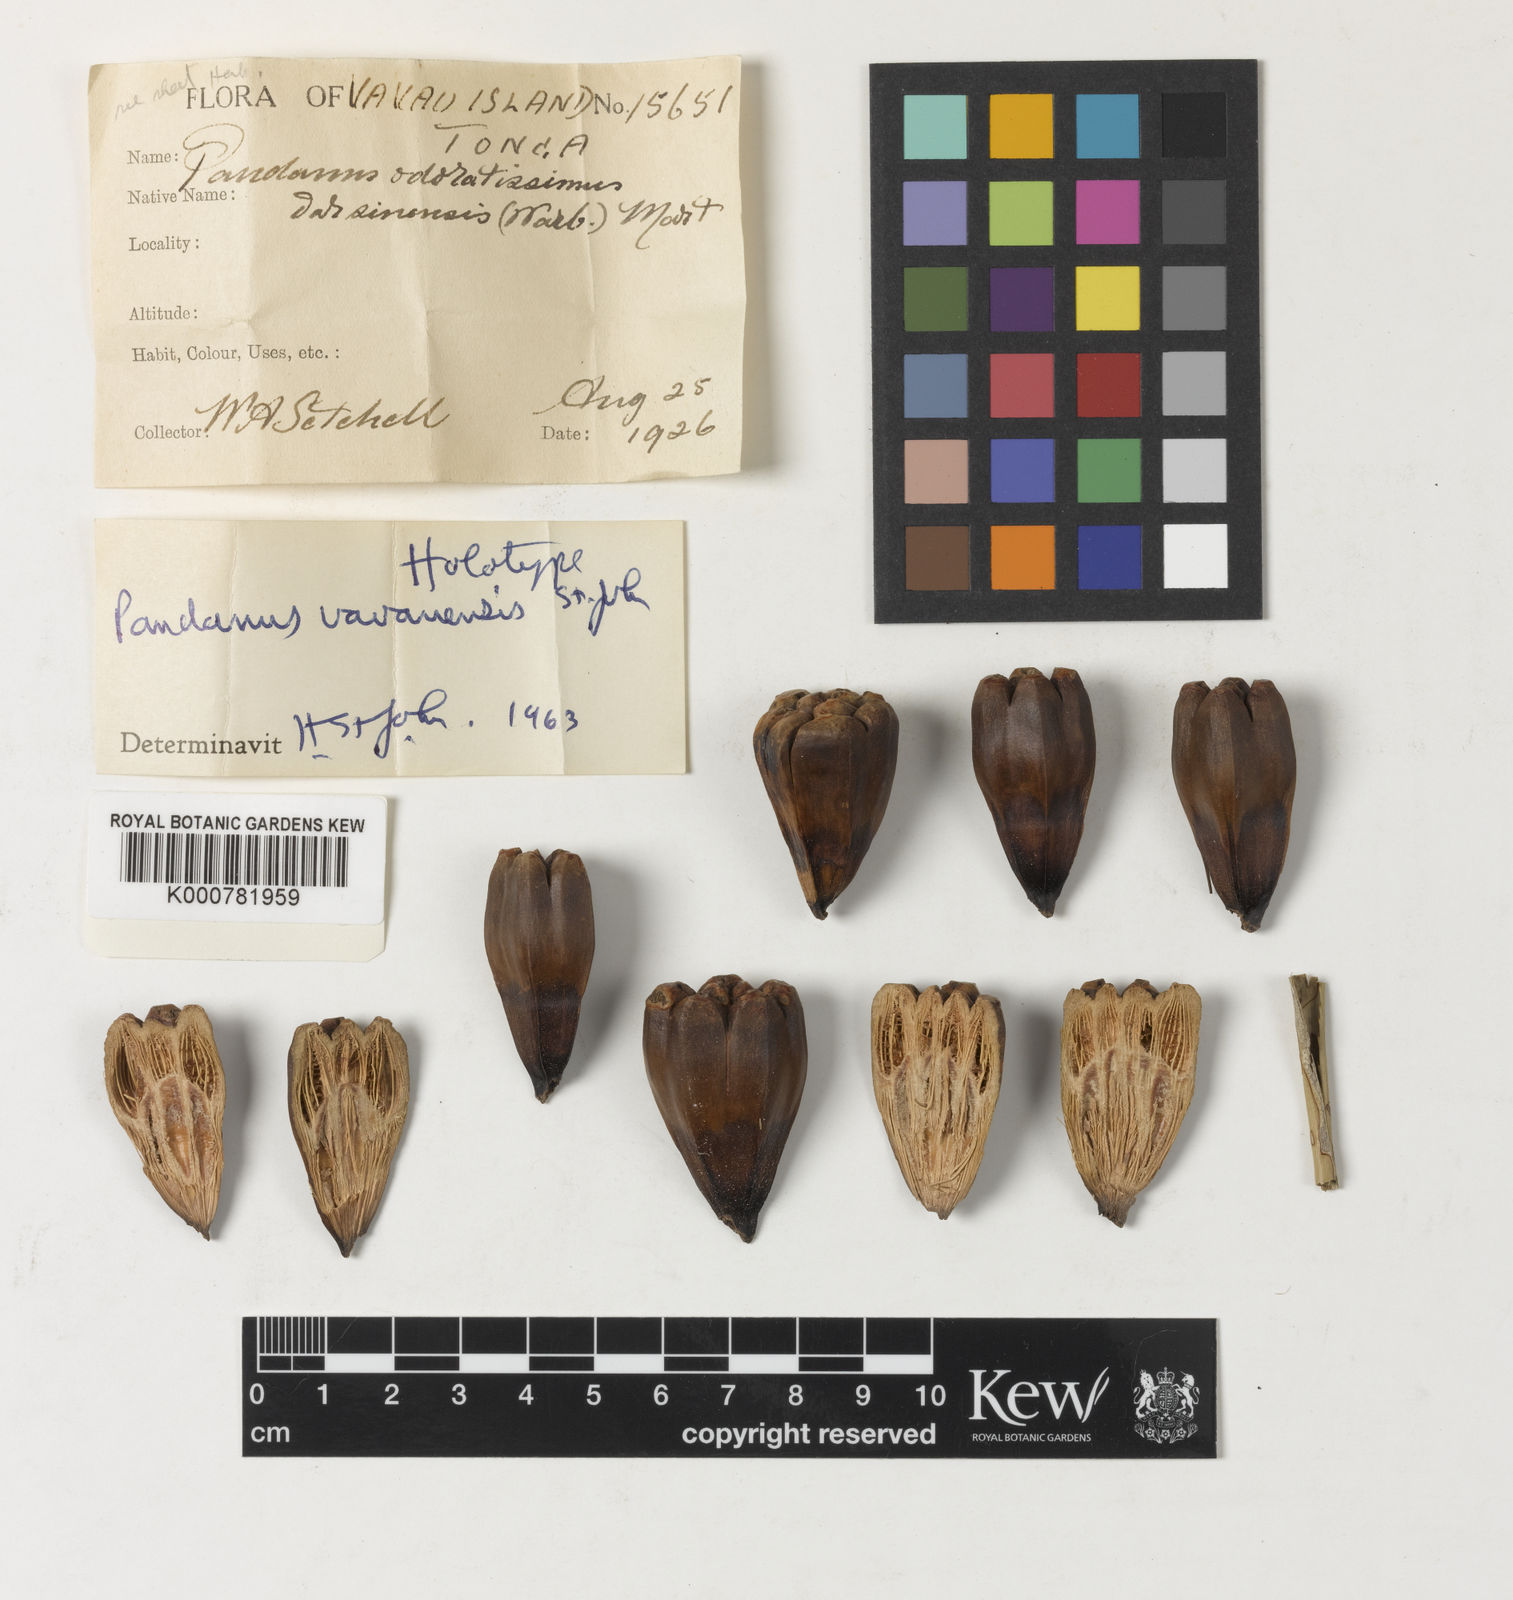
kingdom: Plantae
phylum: Tracheophyta
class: Liliopsida
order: Pandanales
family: Pandanaceae
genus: Pandanus
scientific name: Pandanus vavauensis
